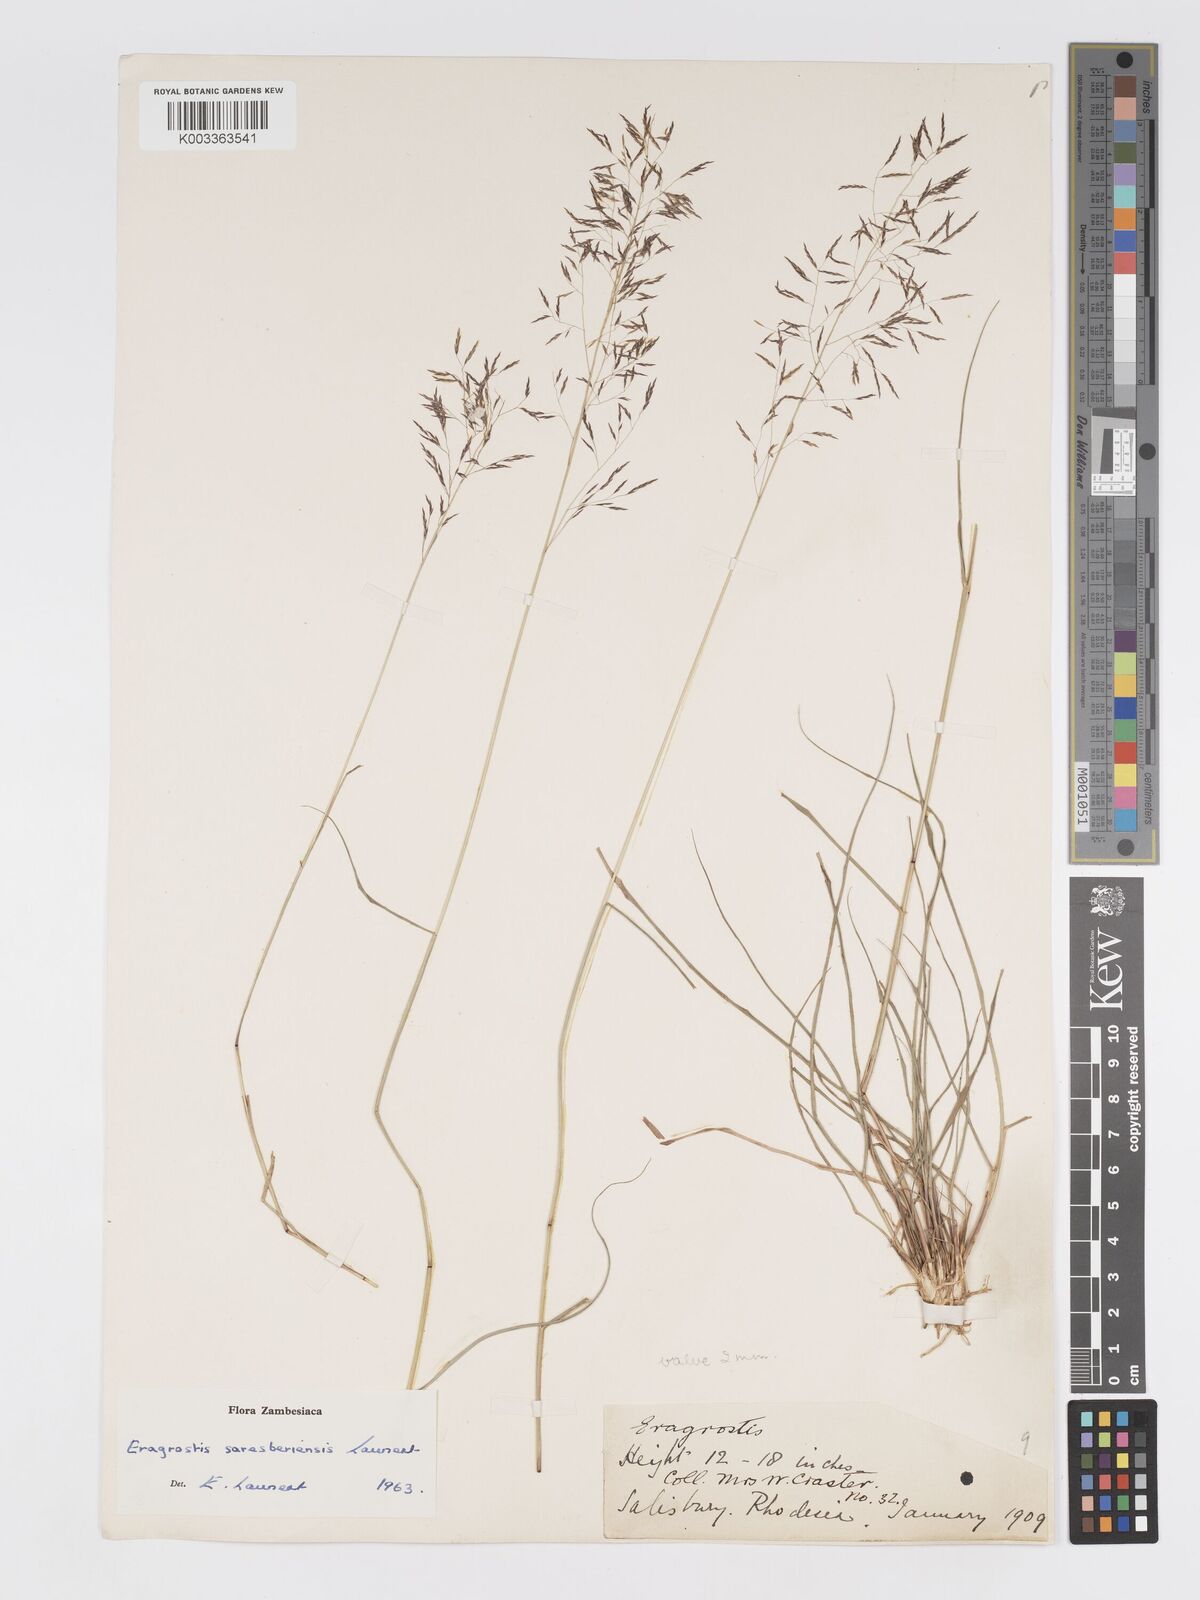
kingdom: Plantae
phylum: Tracheophyta
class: Liliopsida
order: Poales
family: Poaceae
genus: Eragrostis
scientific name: Eragrostis saresberiensis
